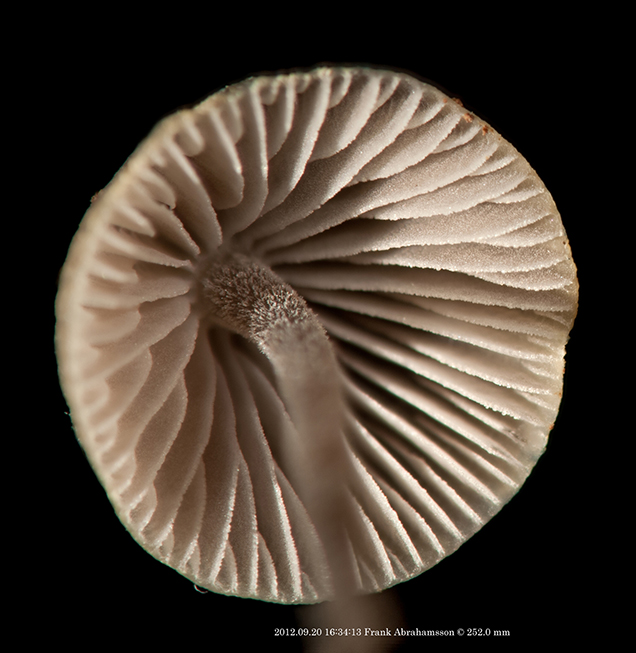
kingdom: Fungi
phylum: Basidiomycota
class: Agaricomycetes
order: Agaricales
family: Mycenaceae
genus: Mycena
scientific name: Mycena amicta
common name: iris-huesvamp
